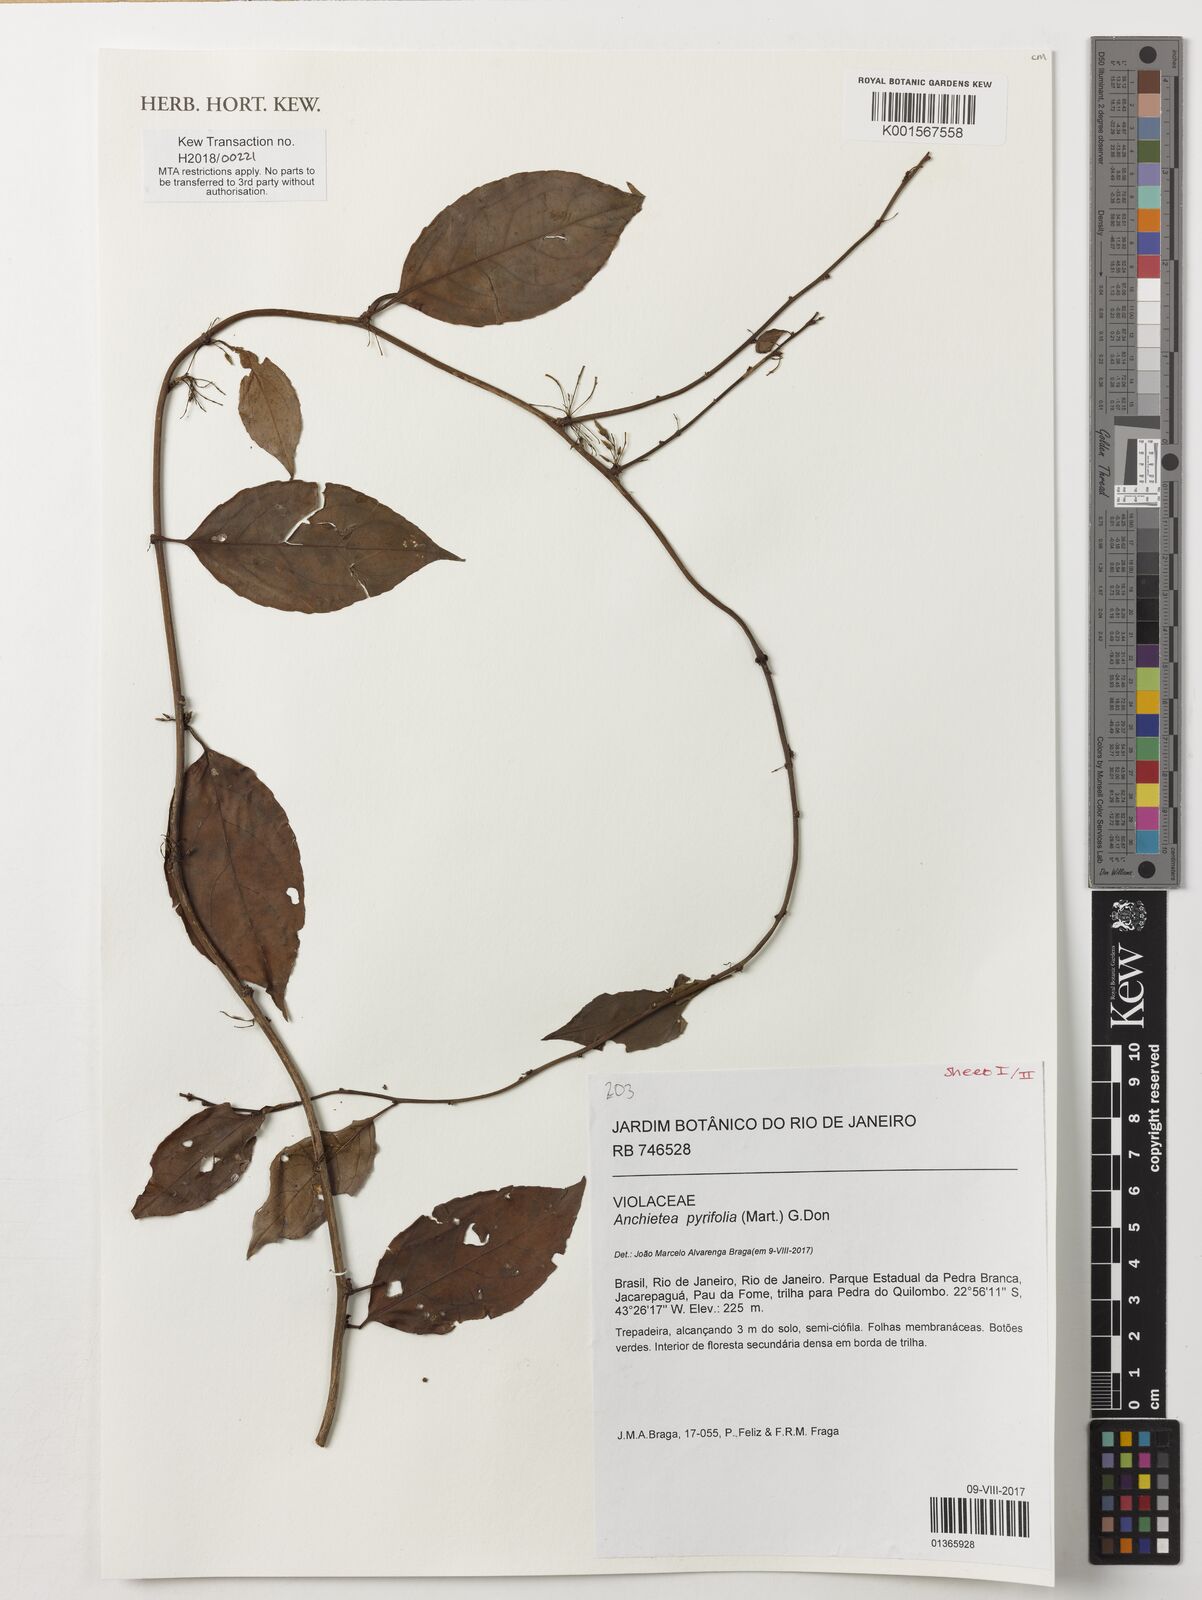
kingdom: Plantae
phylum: Tracheophyta
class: Magnoliopsida
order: Malpighiales
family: Violaceae
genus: Anchietea
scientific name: Anchietea pyrifolia
